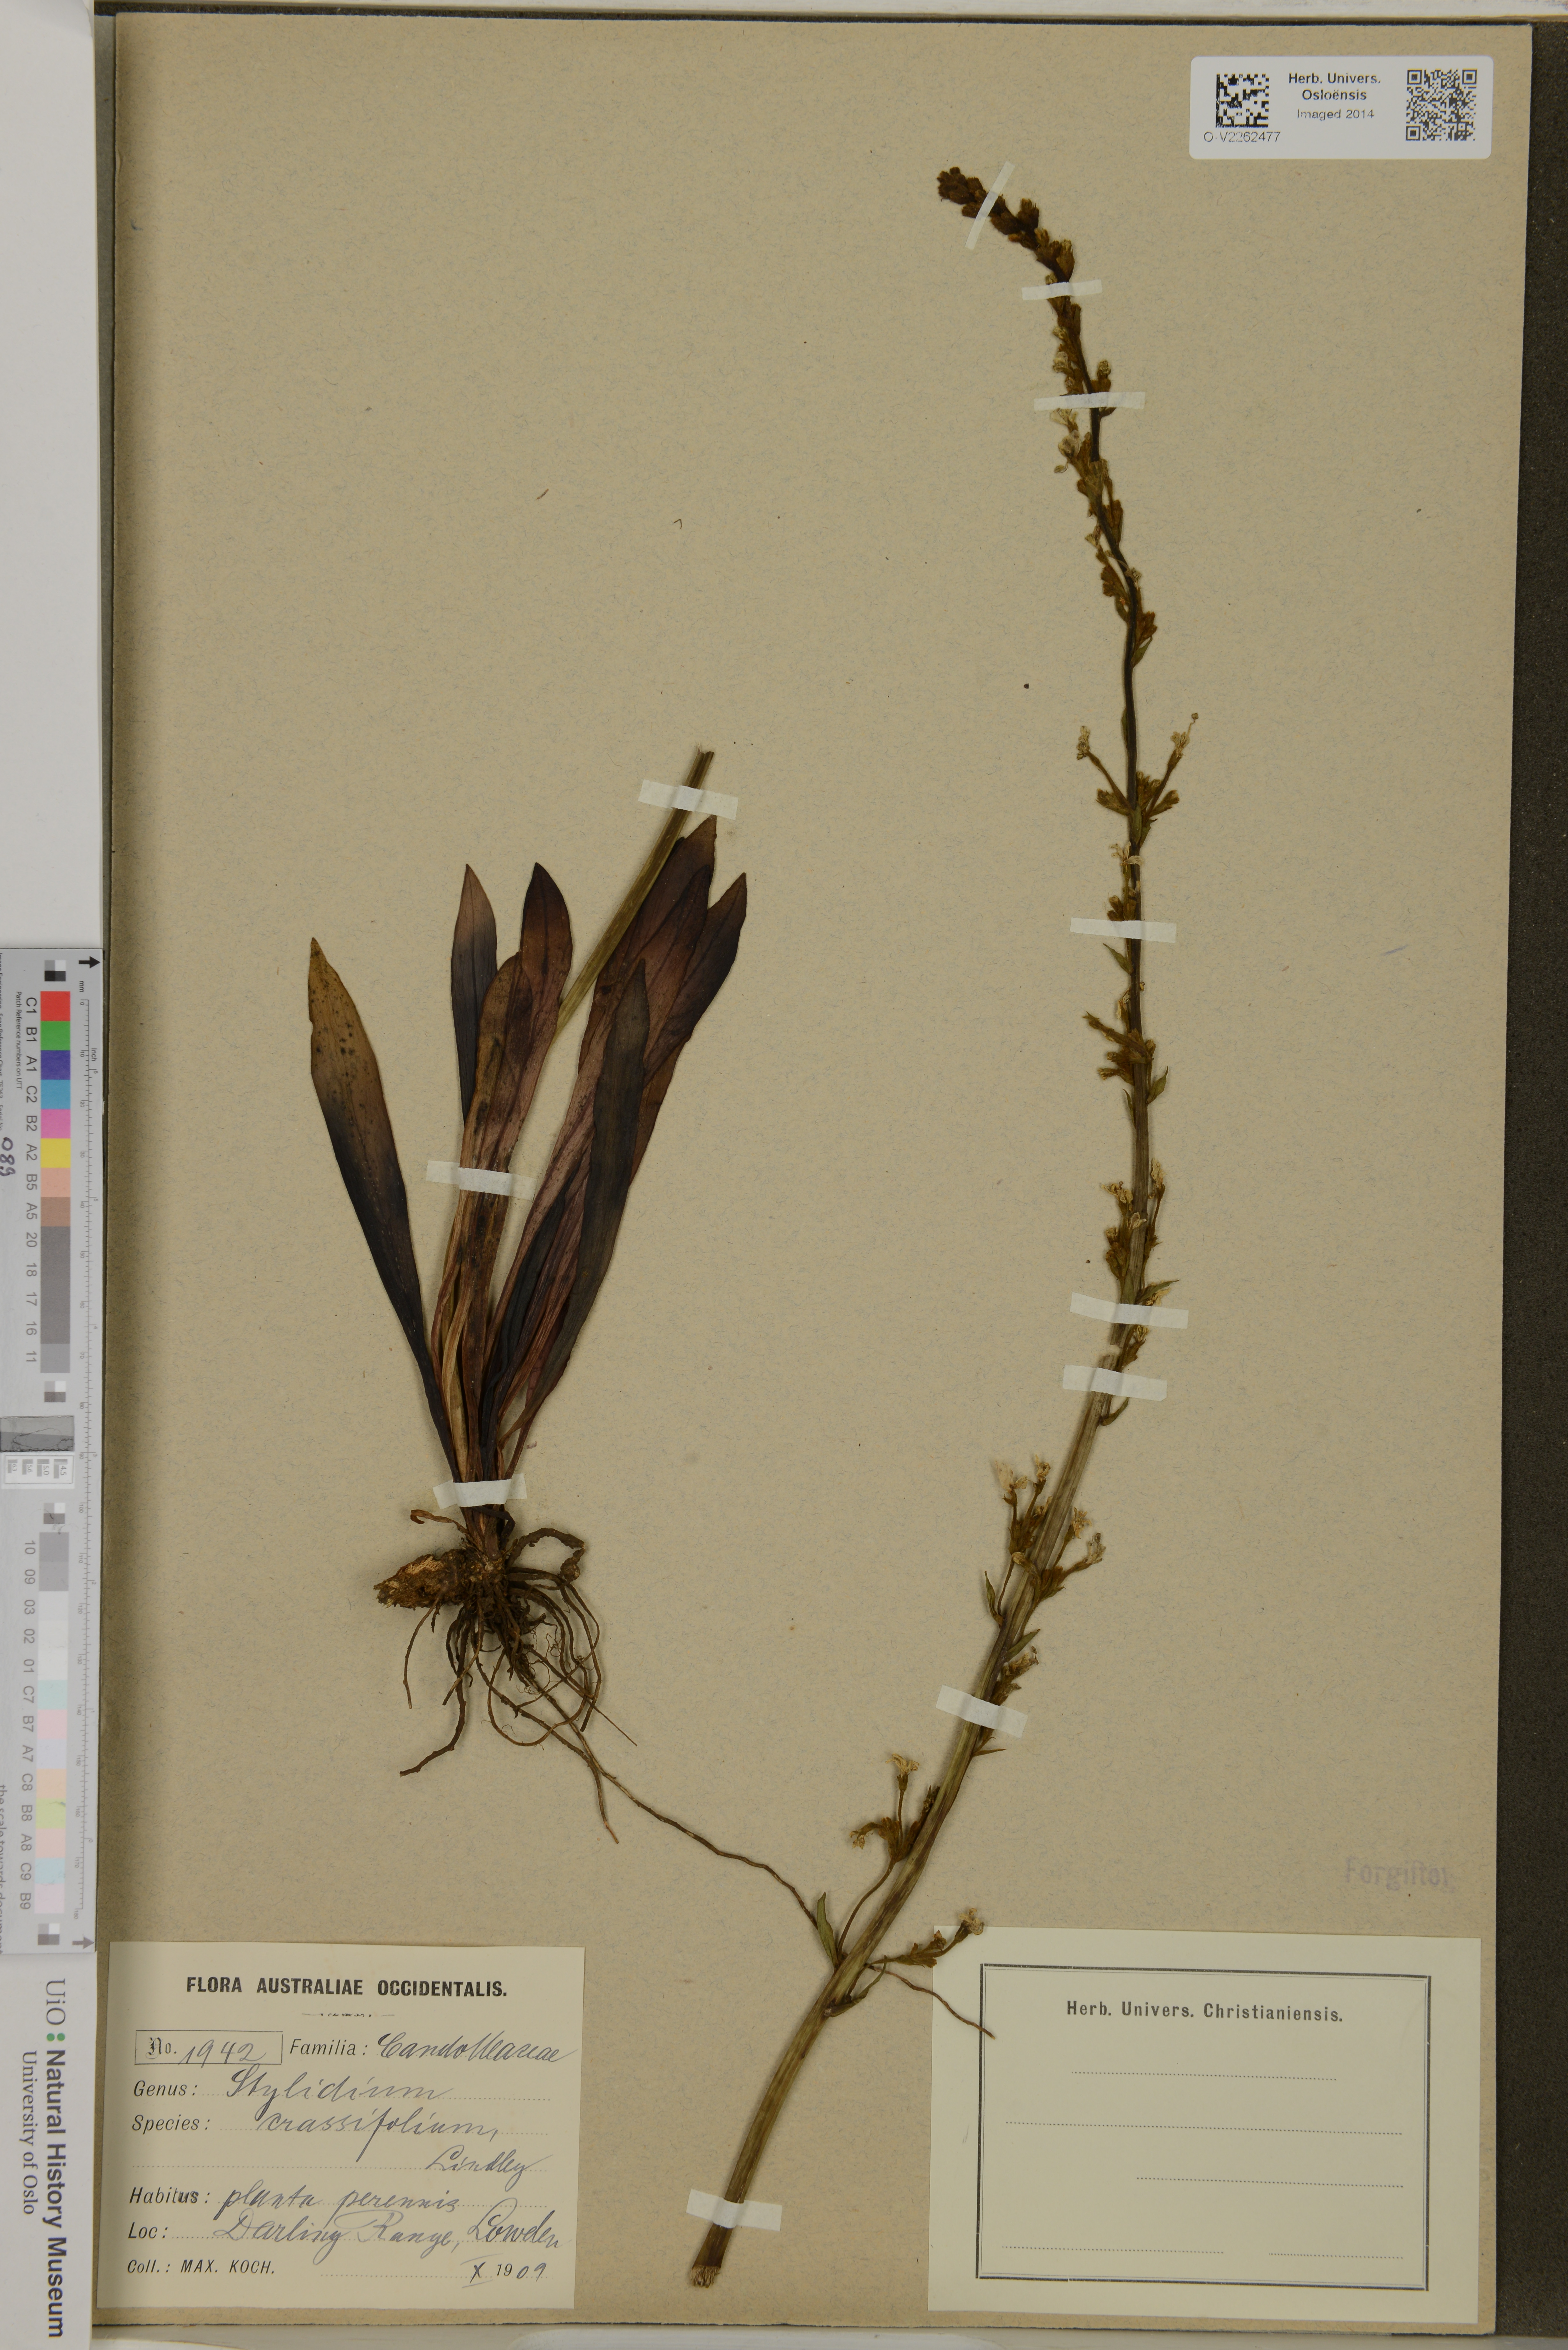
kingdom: Plantae
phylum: Tracheophyta
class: Magnoliopsida
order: Asterales
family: Stylidiaceae
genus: Stylidium
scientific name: Stylidium crassifolium
